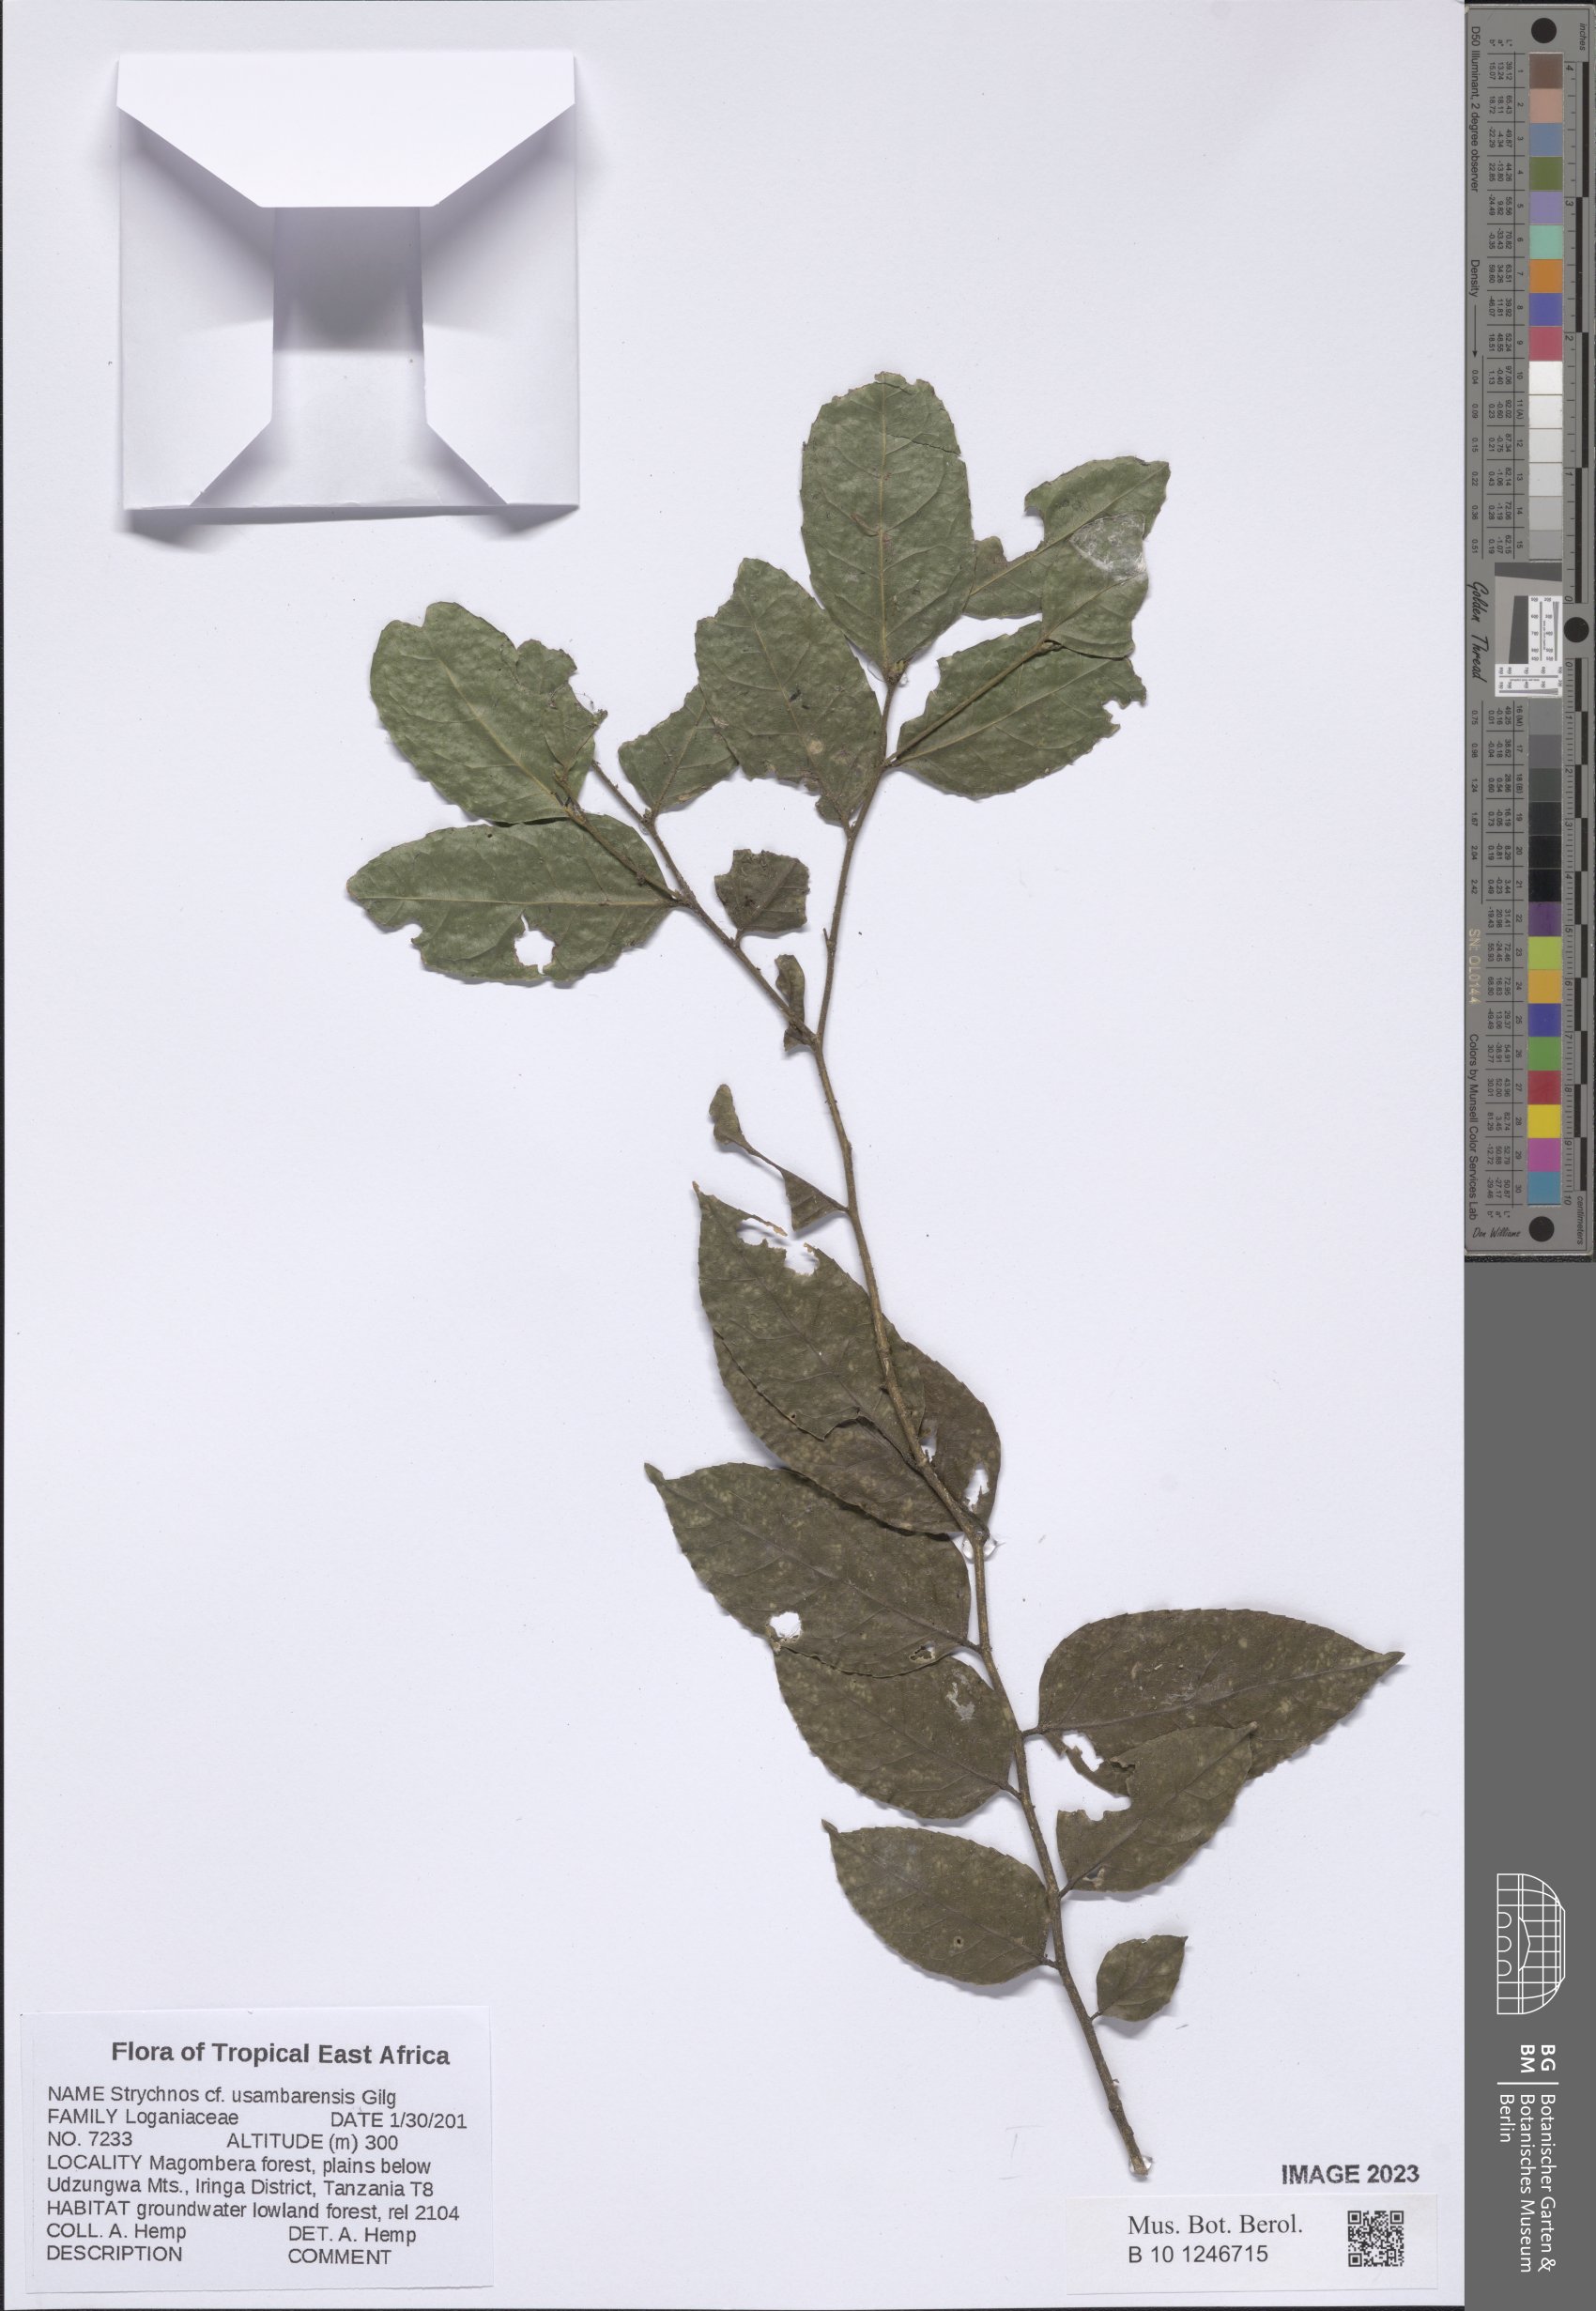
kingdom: Plantae
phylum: Tracheophyta
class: Magnoliopsida
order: Gentianales
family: Loganiaceae
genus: Strychnos
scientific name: Strychnos usambarensis
